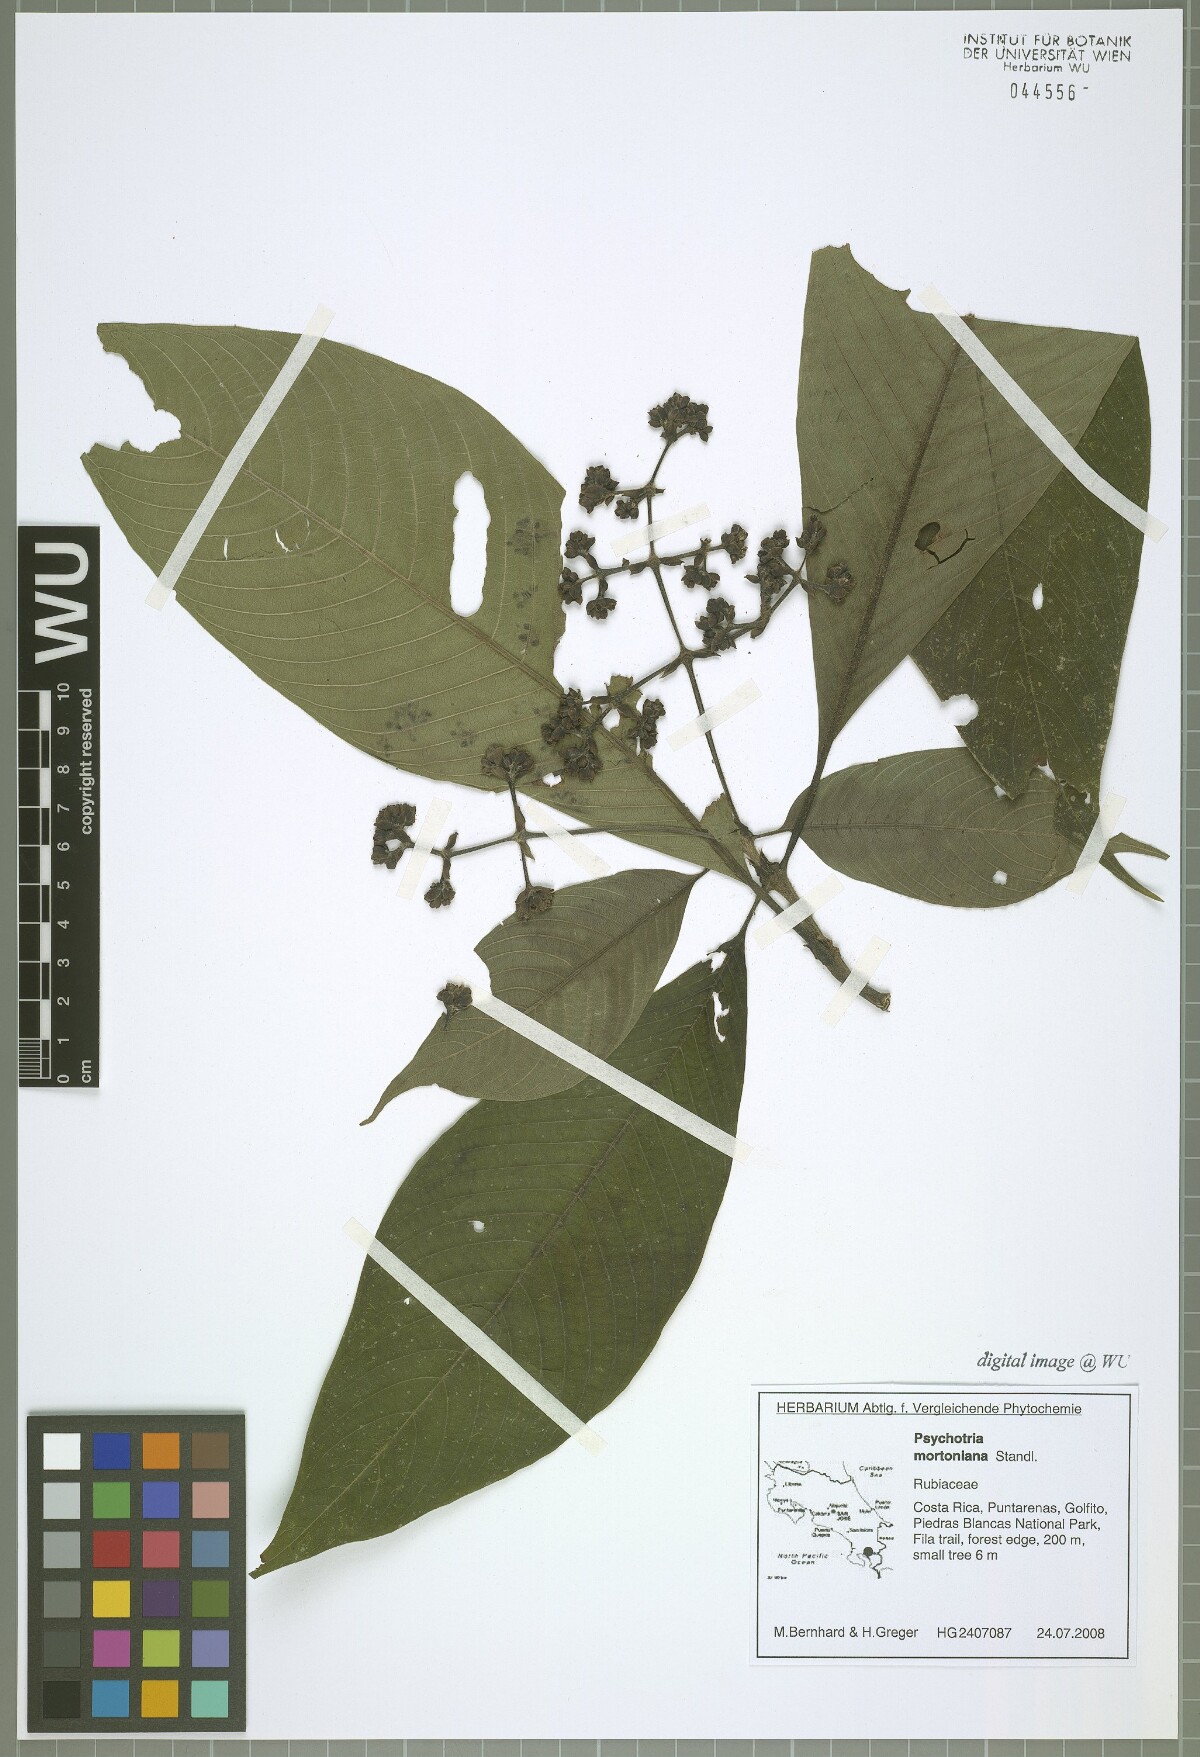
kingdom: Plantae
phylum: Tracheophyta
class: Magnoliopsida
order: Gentianales
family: Rubiaceae
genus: Palicourea
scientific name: Palicourea mortoniana
